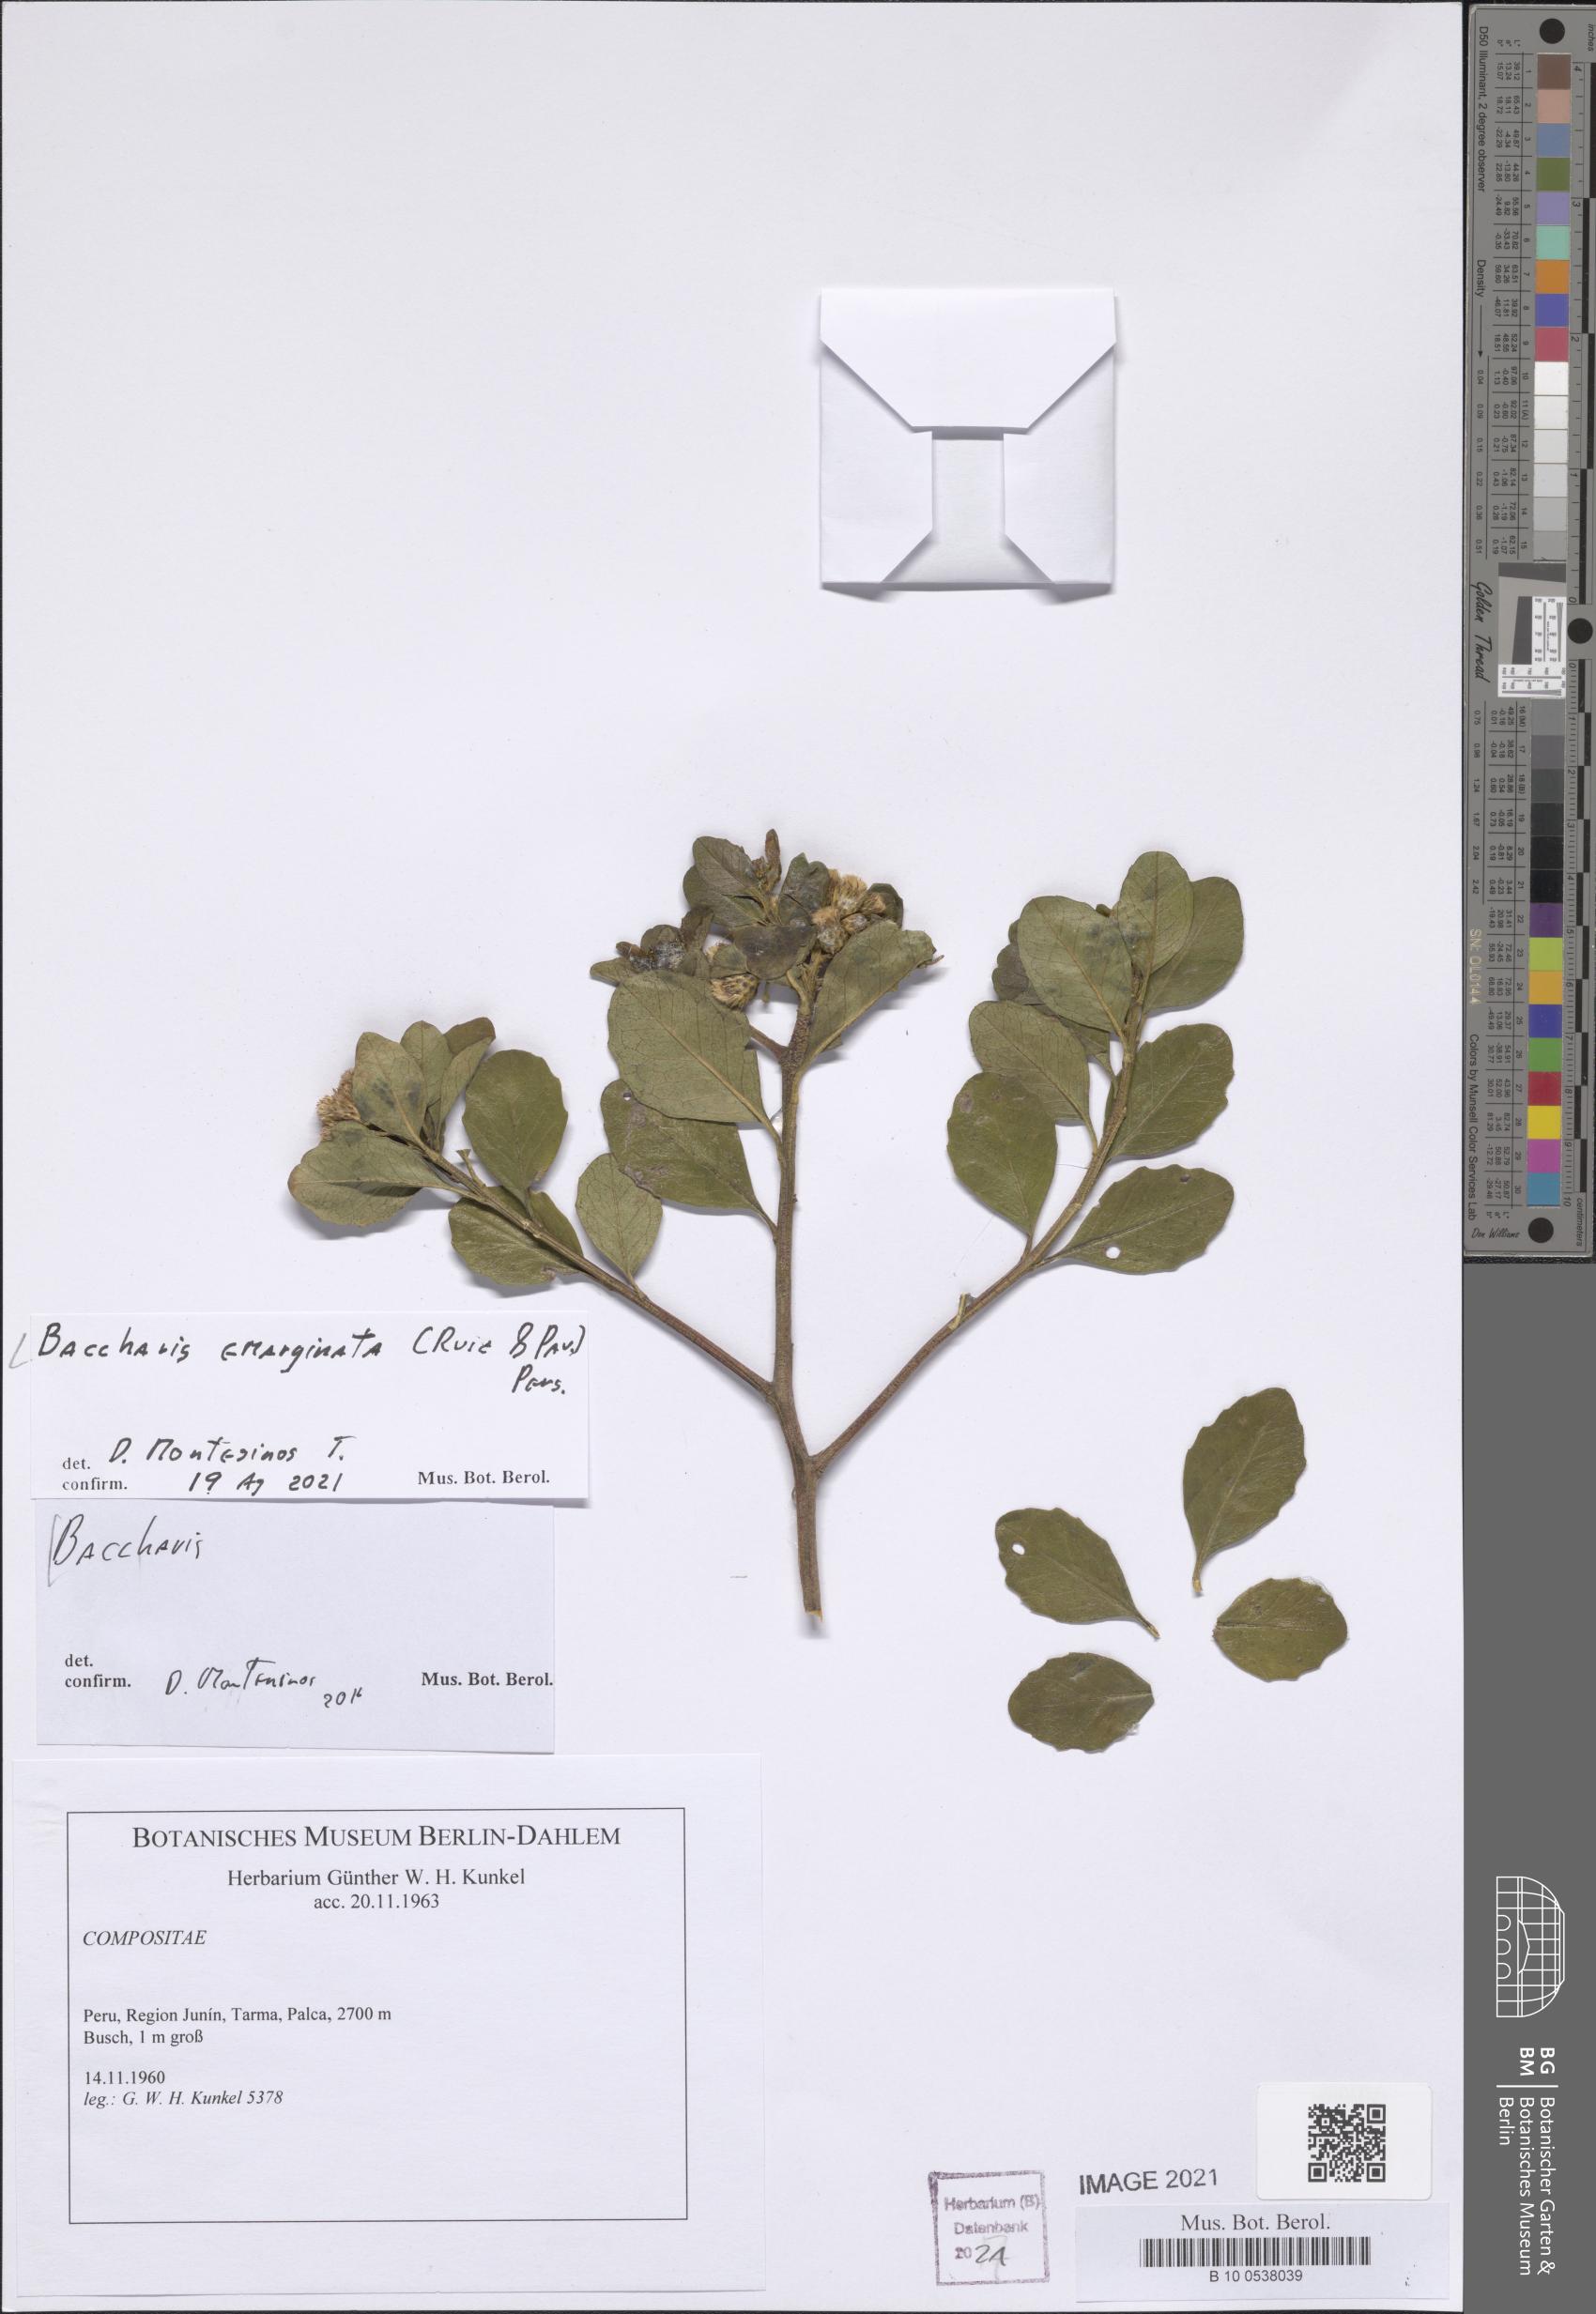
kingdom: Plantae
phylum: Tracheophyta
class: Magnoliopsida
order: Asterales
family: Asteraceae
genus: Baccharis
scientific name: Baccharis emarginata
